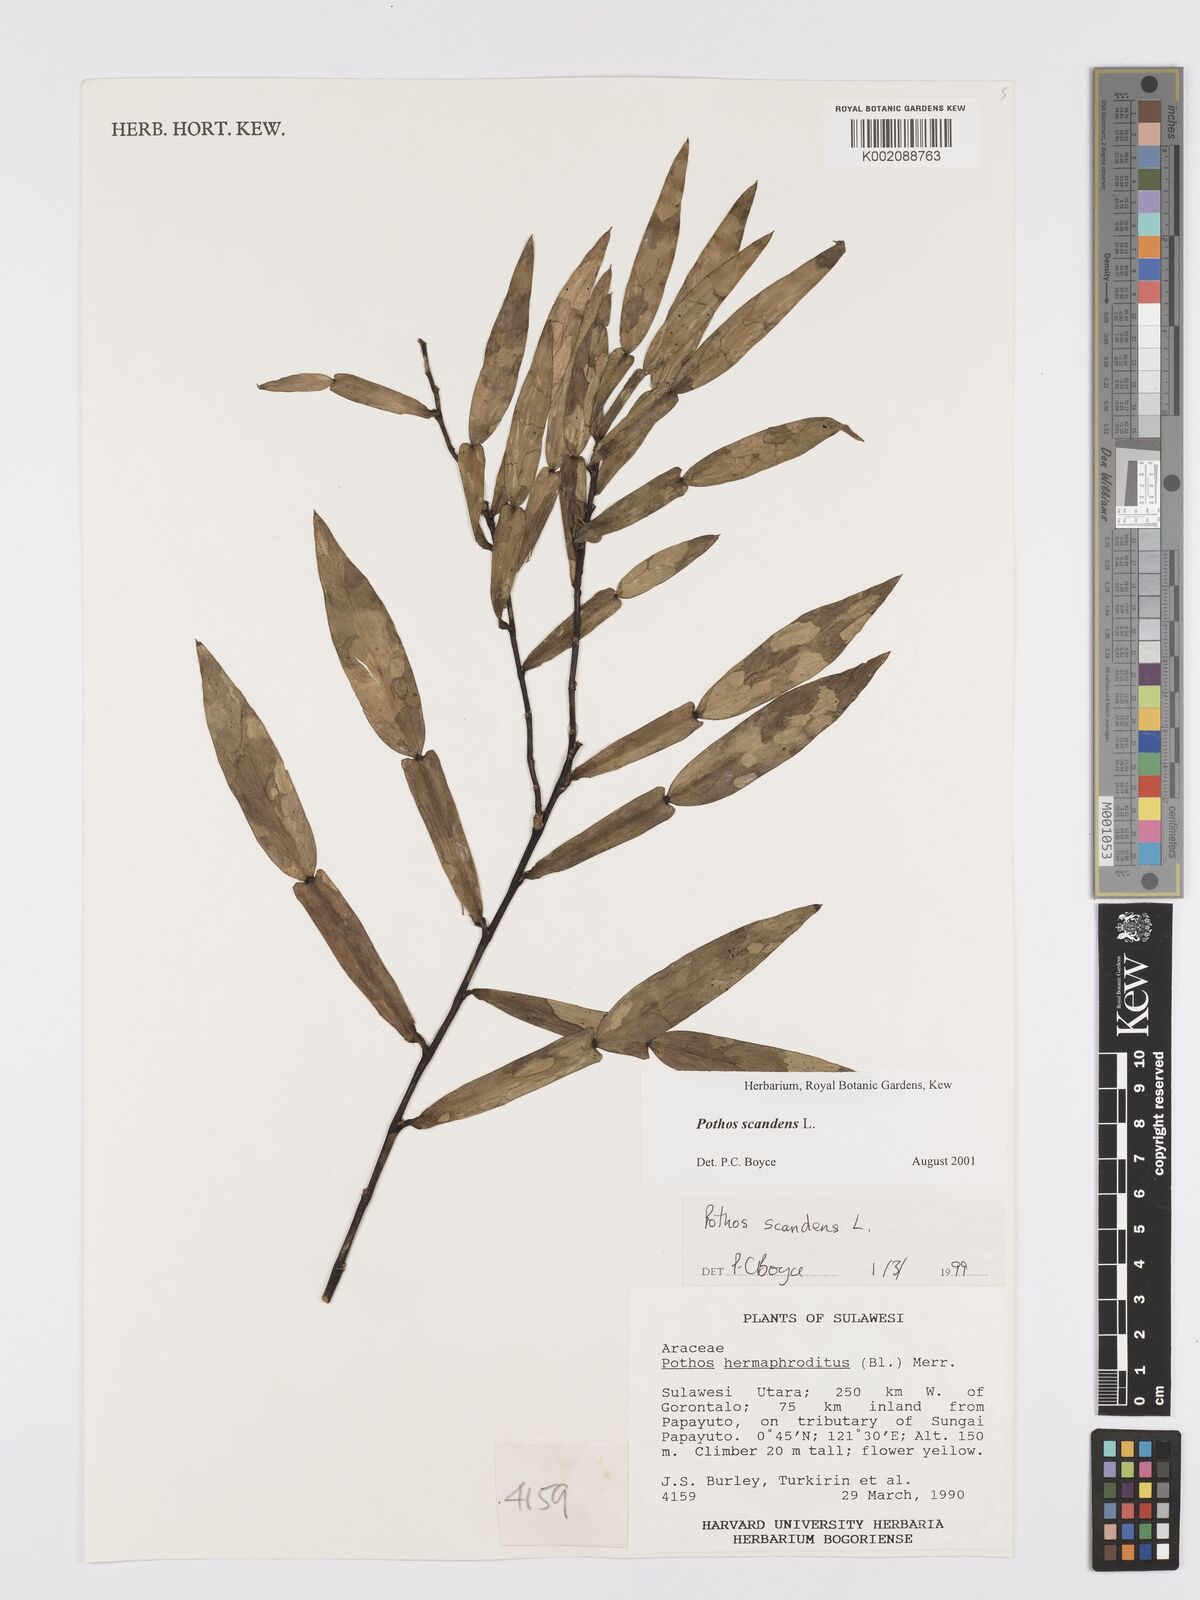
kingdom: Plantae
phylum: Tracheophyta
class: Liliopsida
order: Alismatales
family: Araceae
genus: Pothos
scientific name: Pothos scandens
